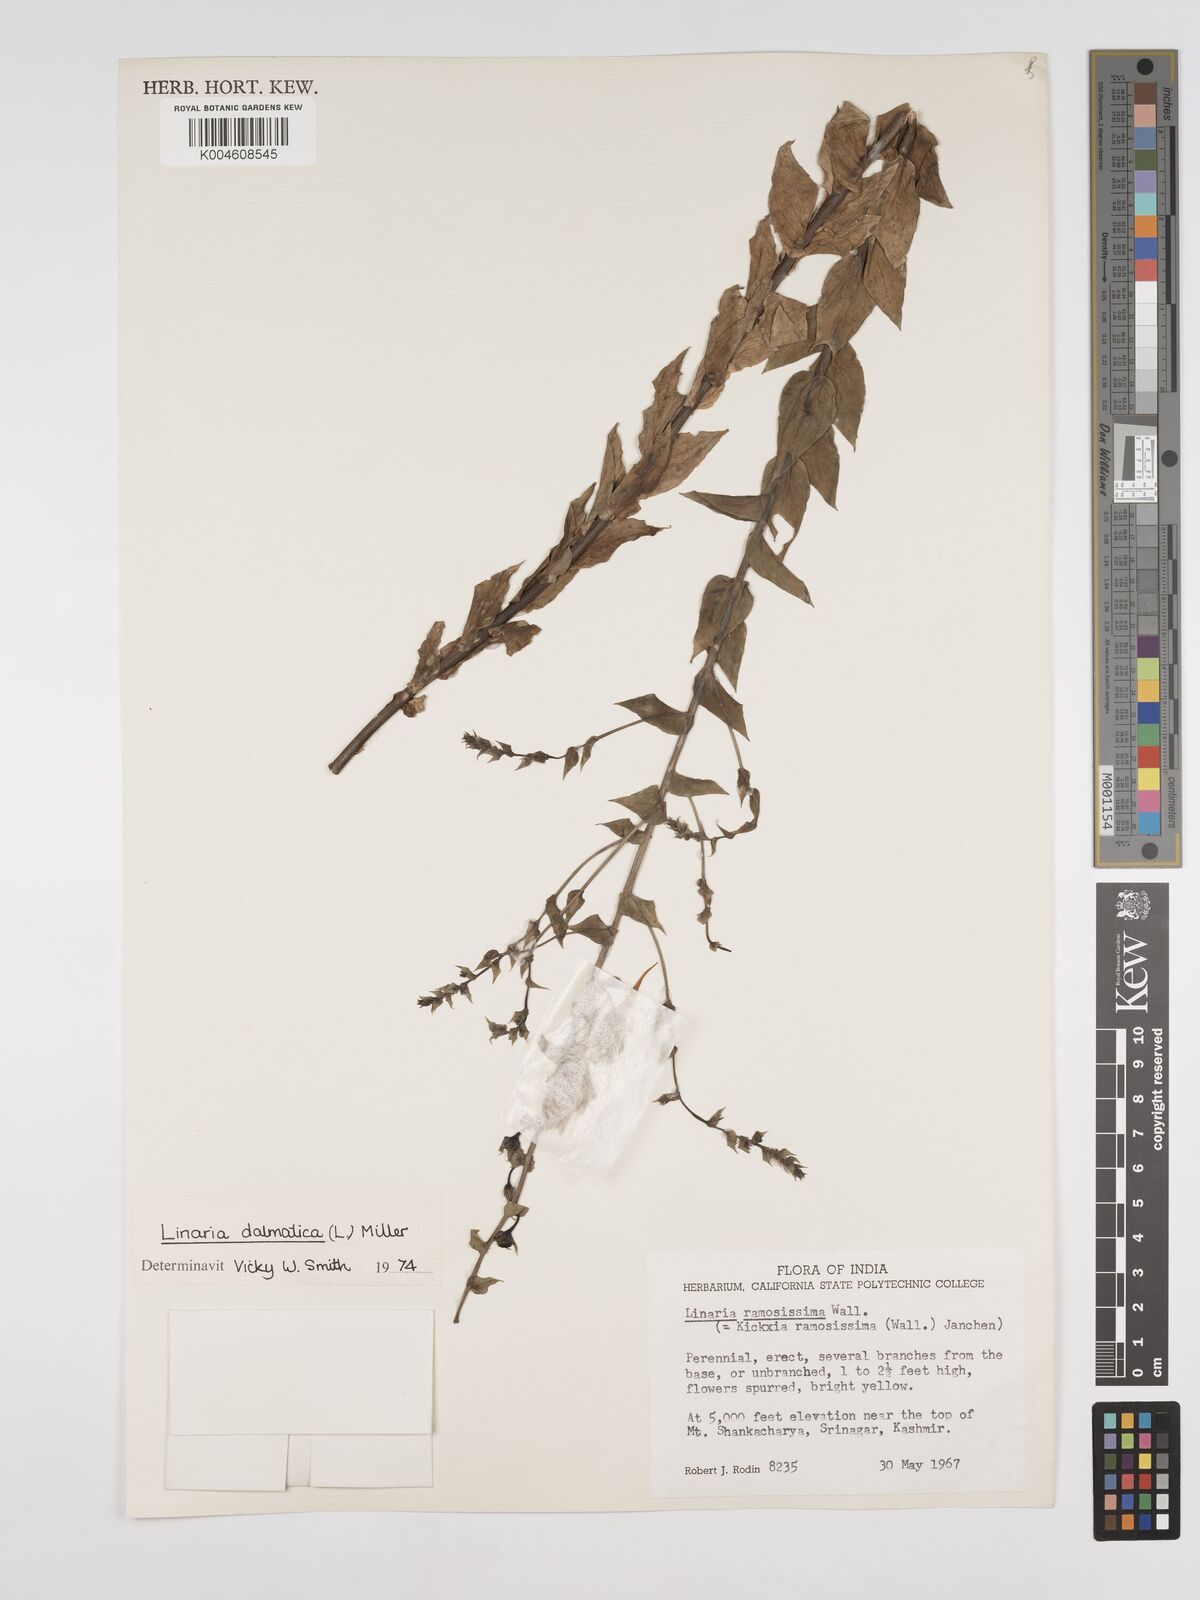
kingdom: Plantae
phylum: Tracheophyta
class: Magnoliopsida
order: Lamiales
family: Plantaginaceae
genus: Kickxia
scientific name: Kickxia
